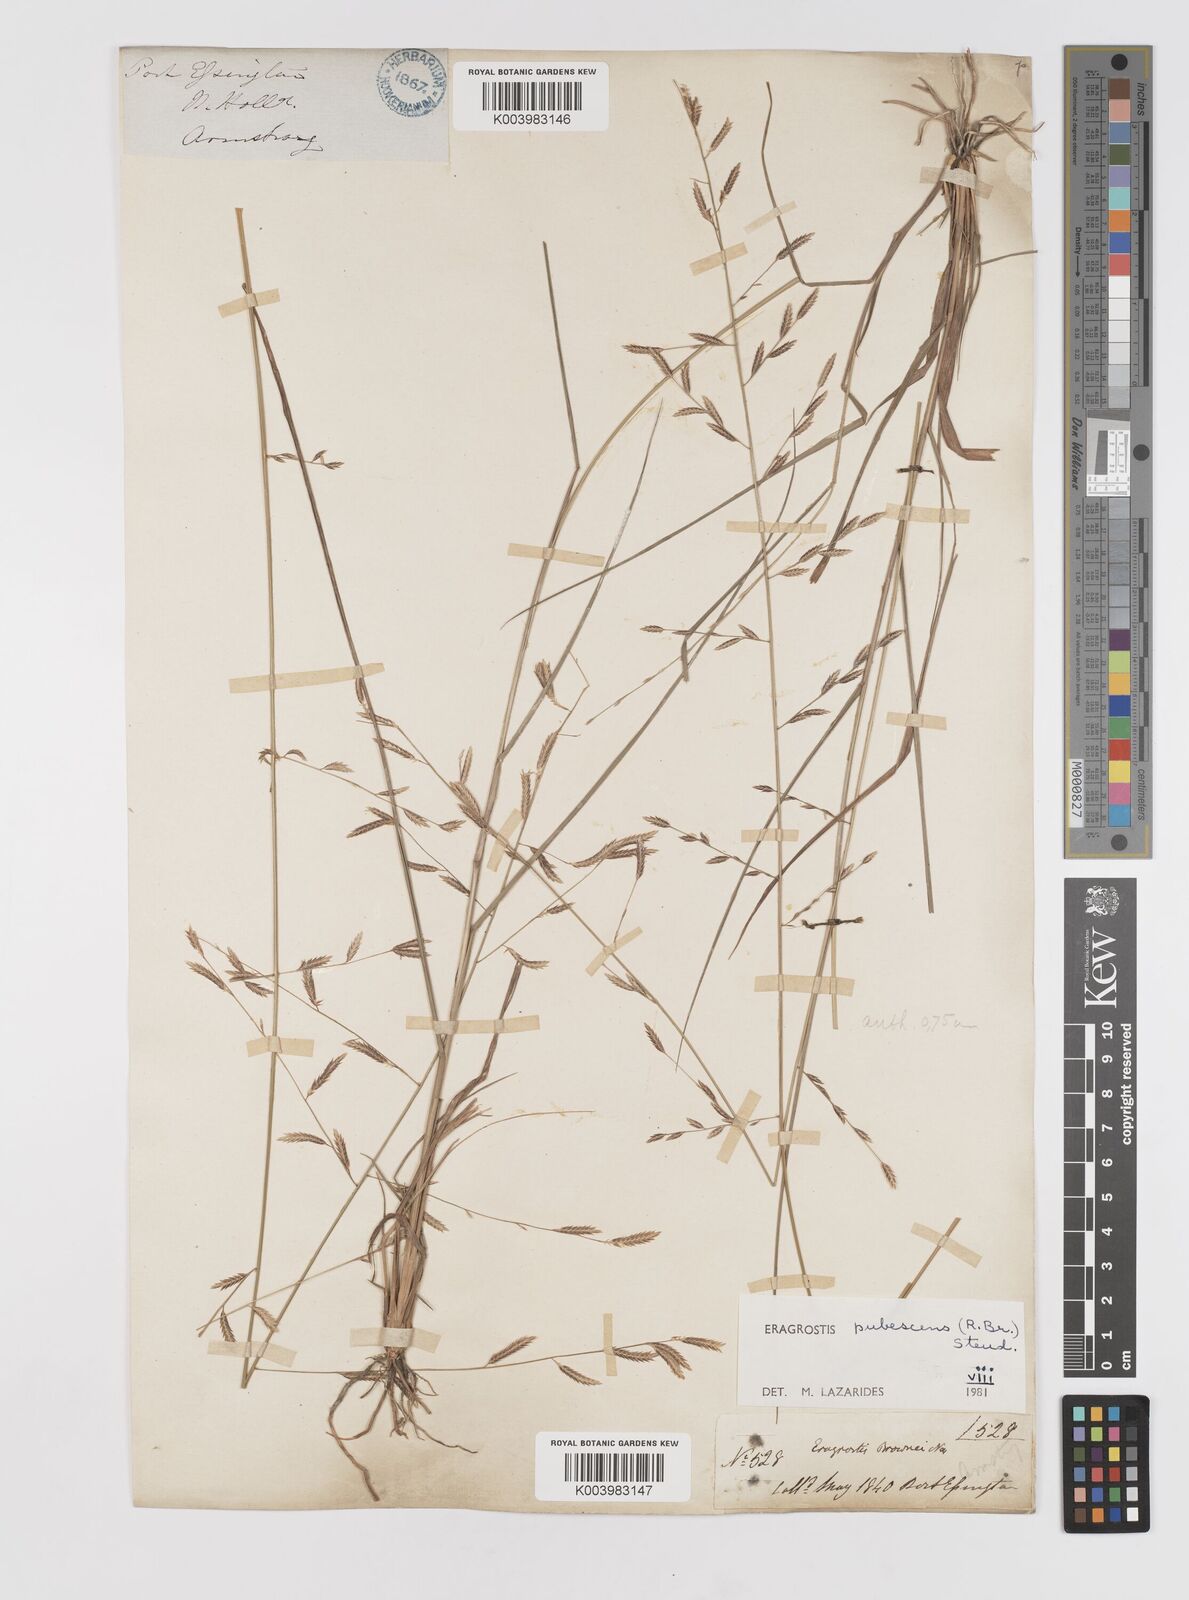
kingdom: Plantae
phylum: Tracheophyta
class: Liliopsida
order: Poales
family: Poaceae
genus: Eragrostis
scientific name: Eragrostis pubescens
